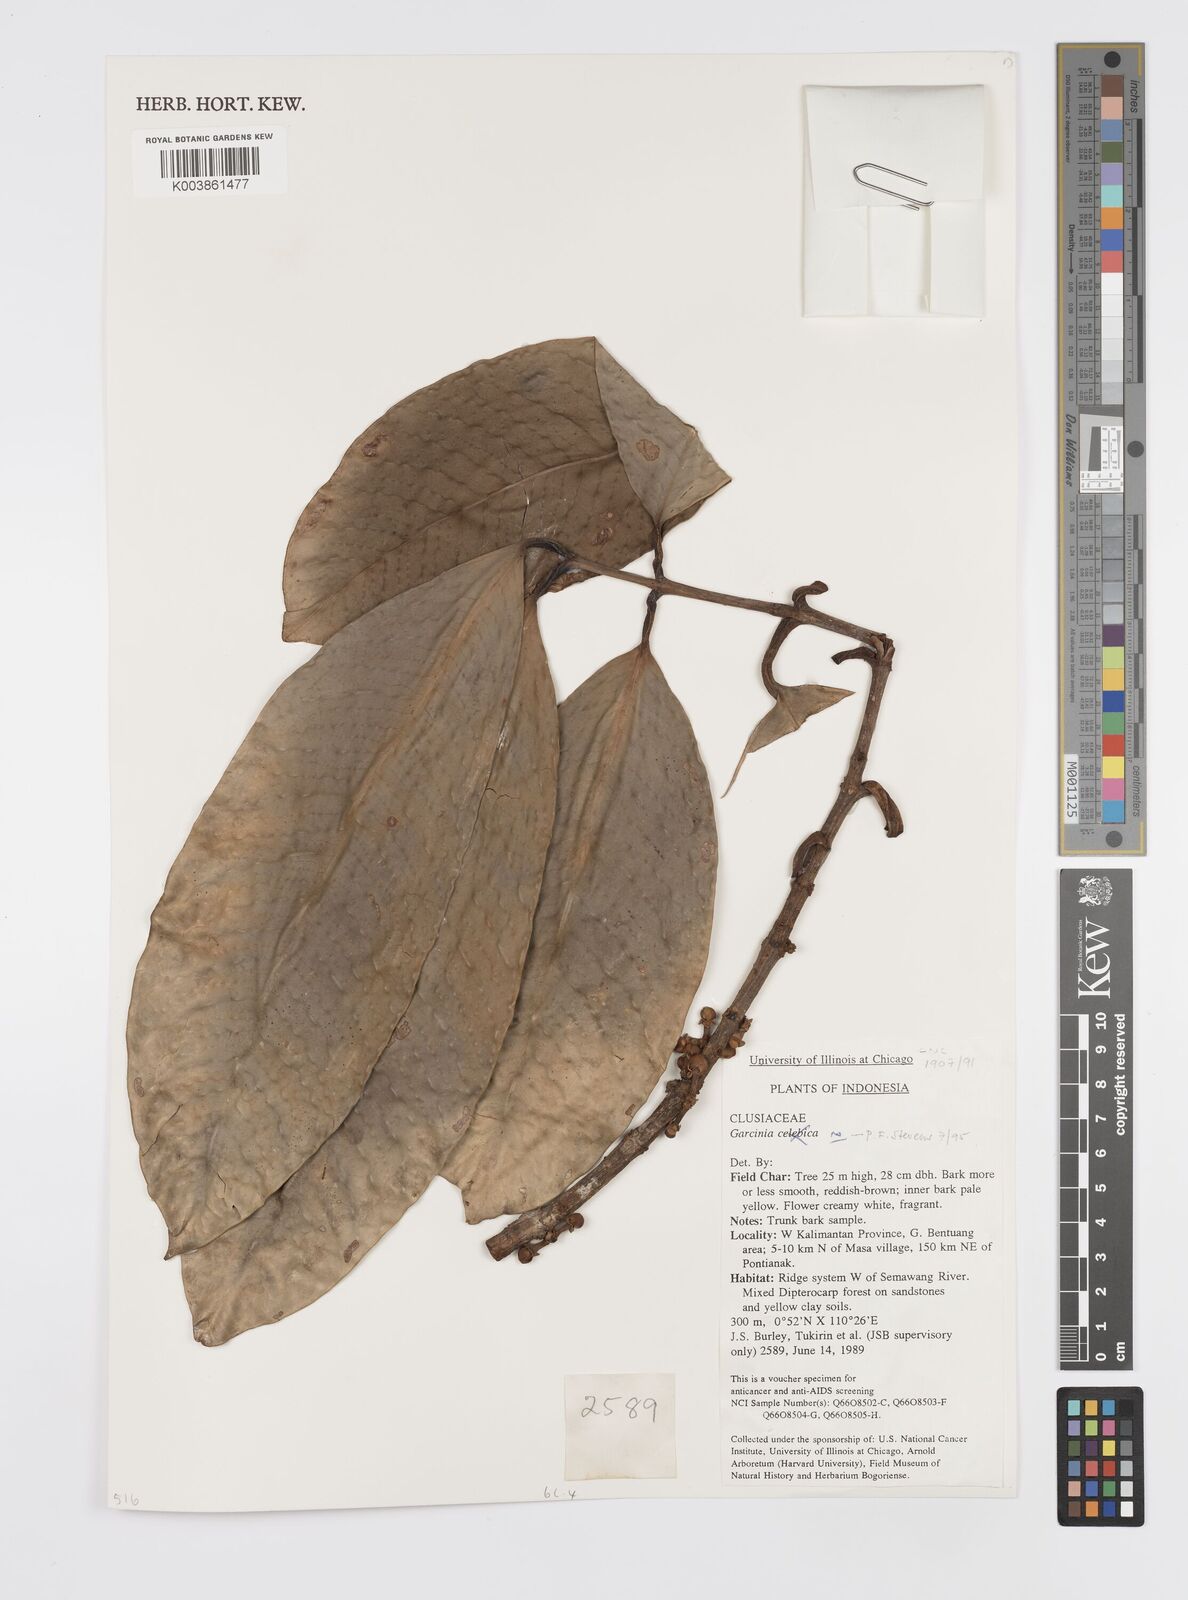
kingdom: Plantae
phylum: Tracheophyta
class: Magnoliopsida
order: Malpighiales
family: Clusiaceae
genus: Garcinia
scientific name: Garcinia
